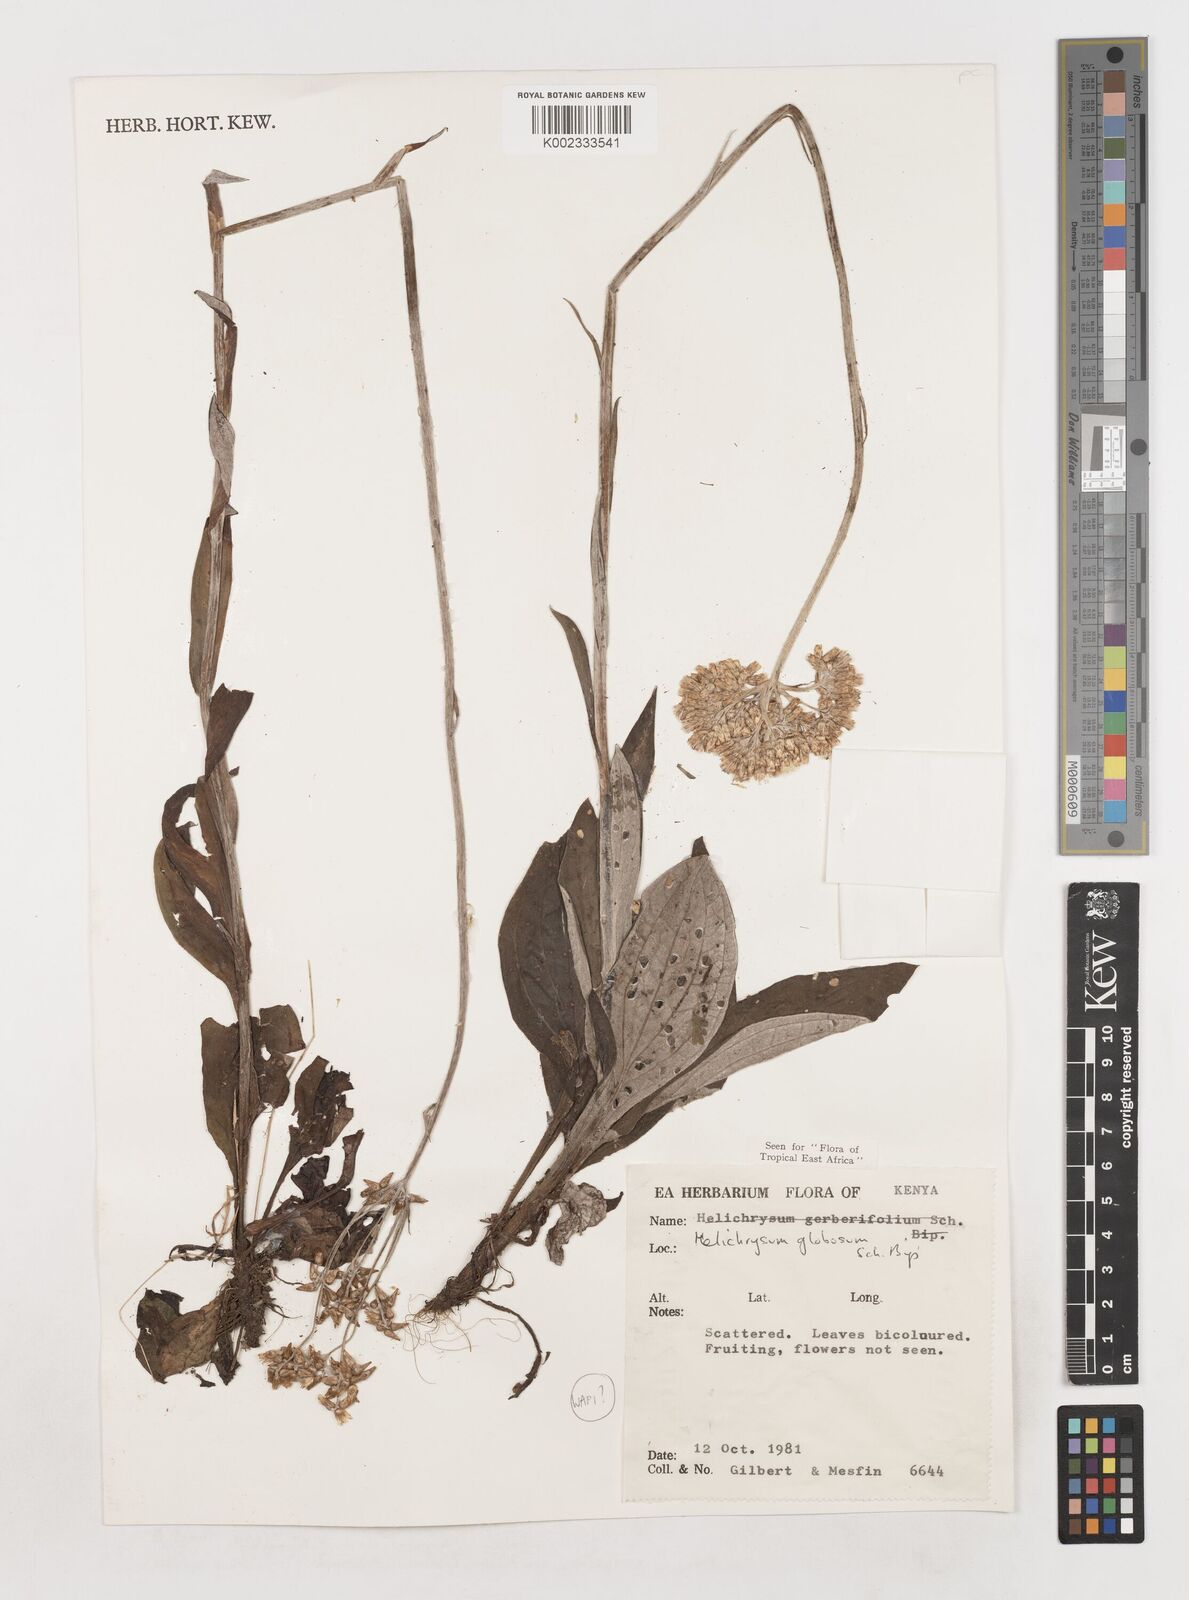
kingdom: Plantae
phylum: Tracheophyta
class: Magnoliopsida
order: Asterales
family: Asteraceae
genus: Helichrysum
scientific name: Helichrysum globosum
